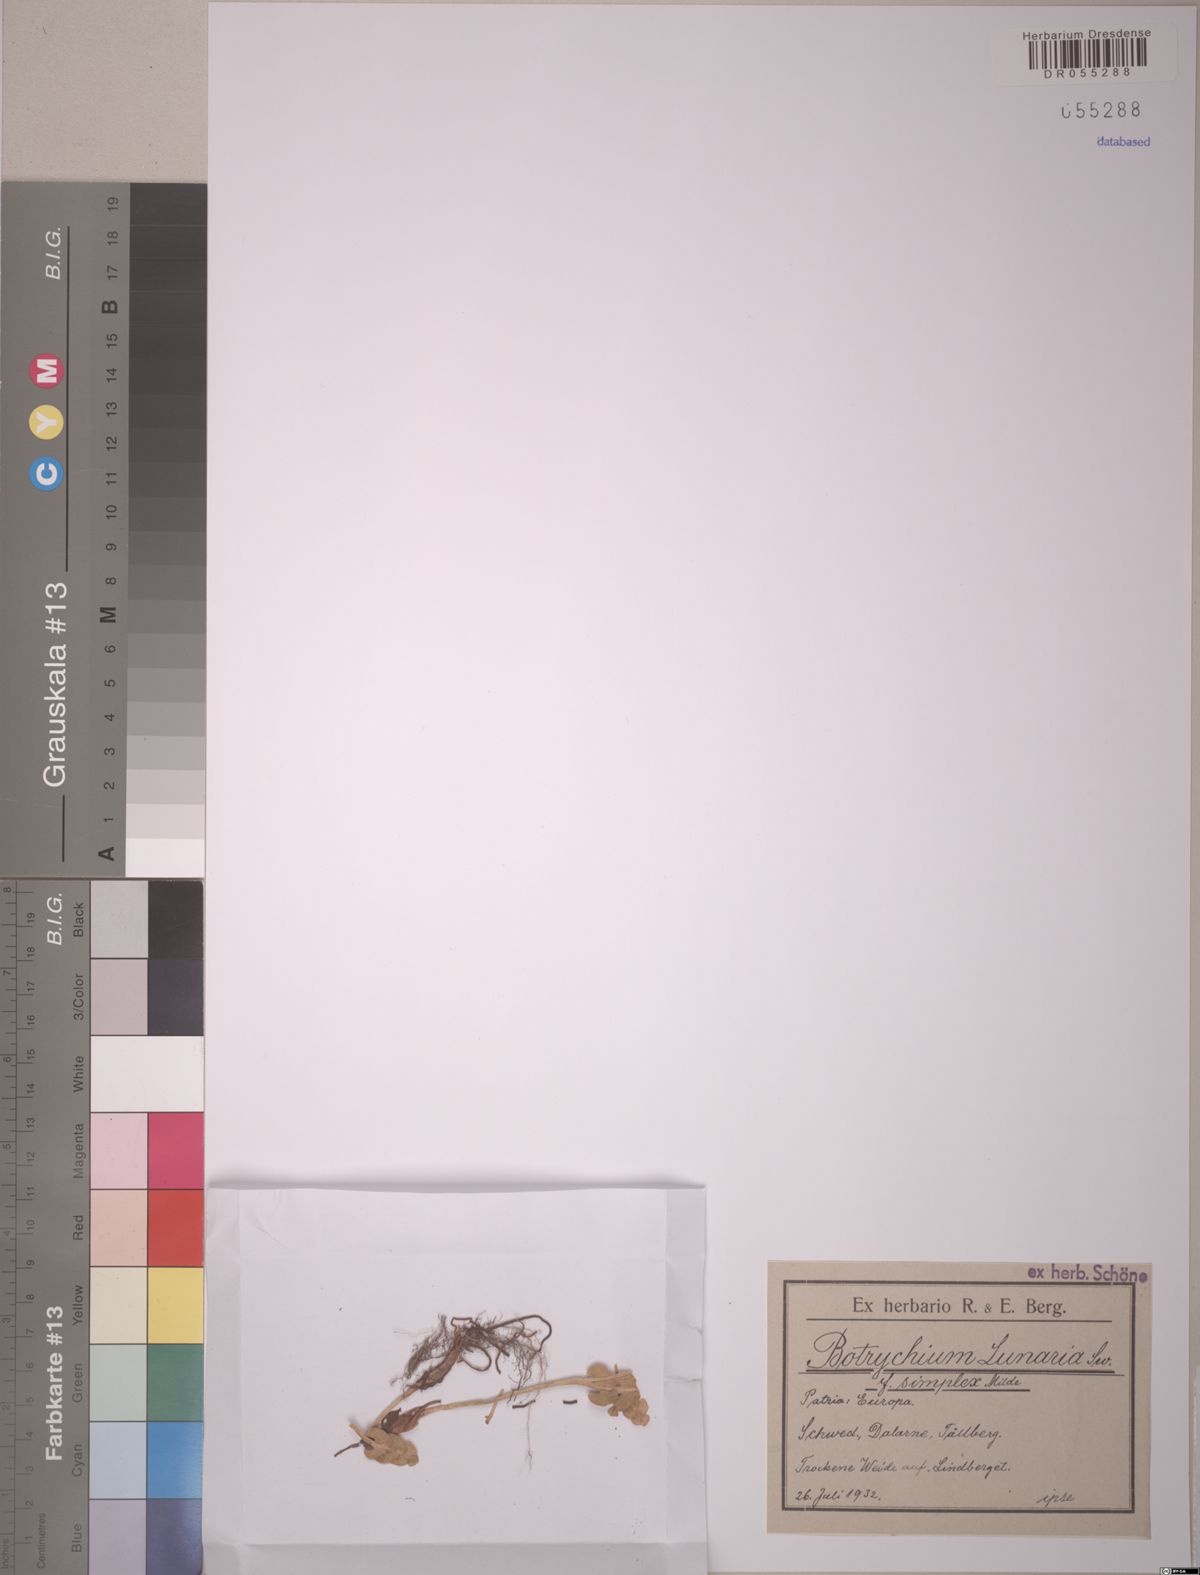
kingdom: Plantae
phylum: Tracheophyta
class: Polypodiopsida
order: Ophioglossales
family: Ophioglossaceae
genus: Botrychium
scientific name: Botrychium lunaria
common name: Moonwort
